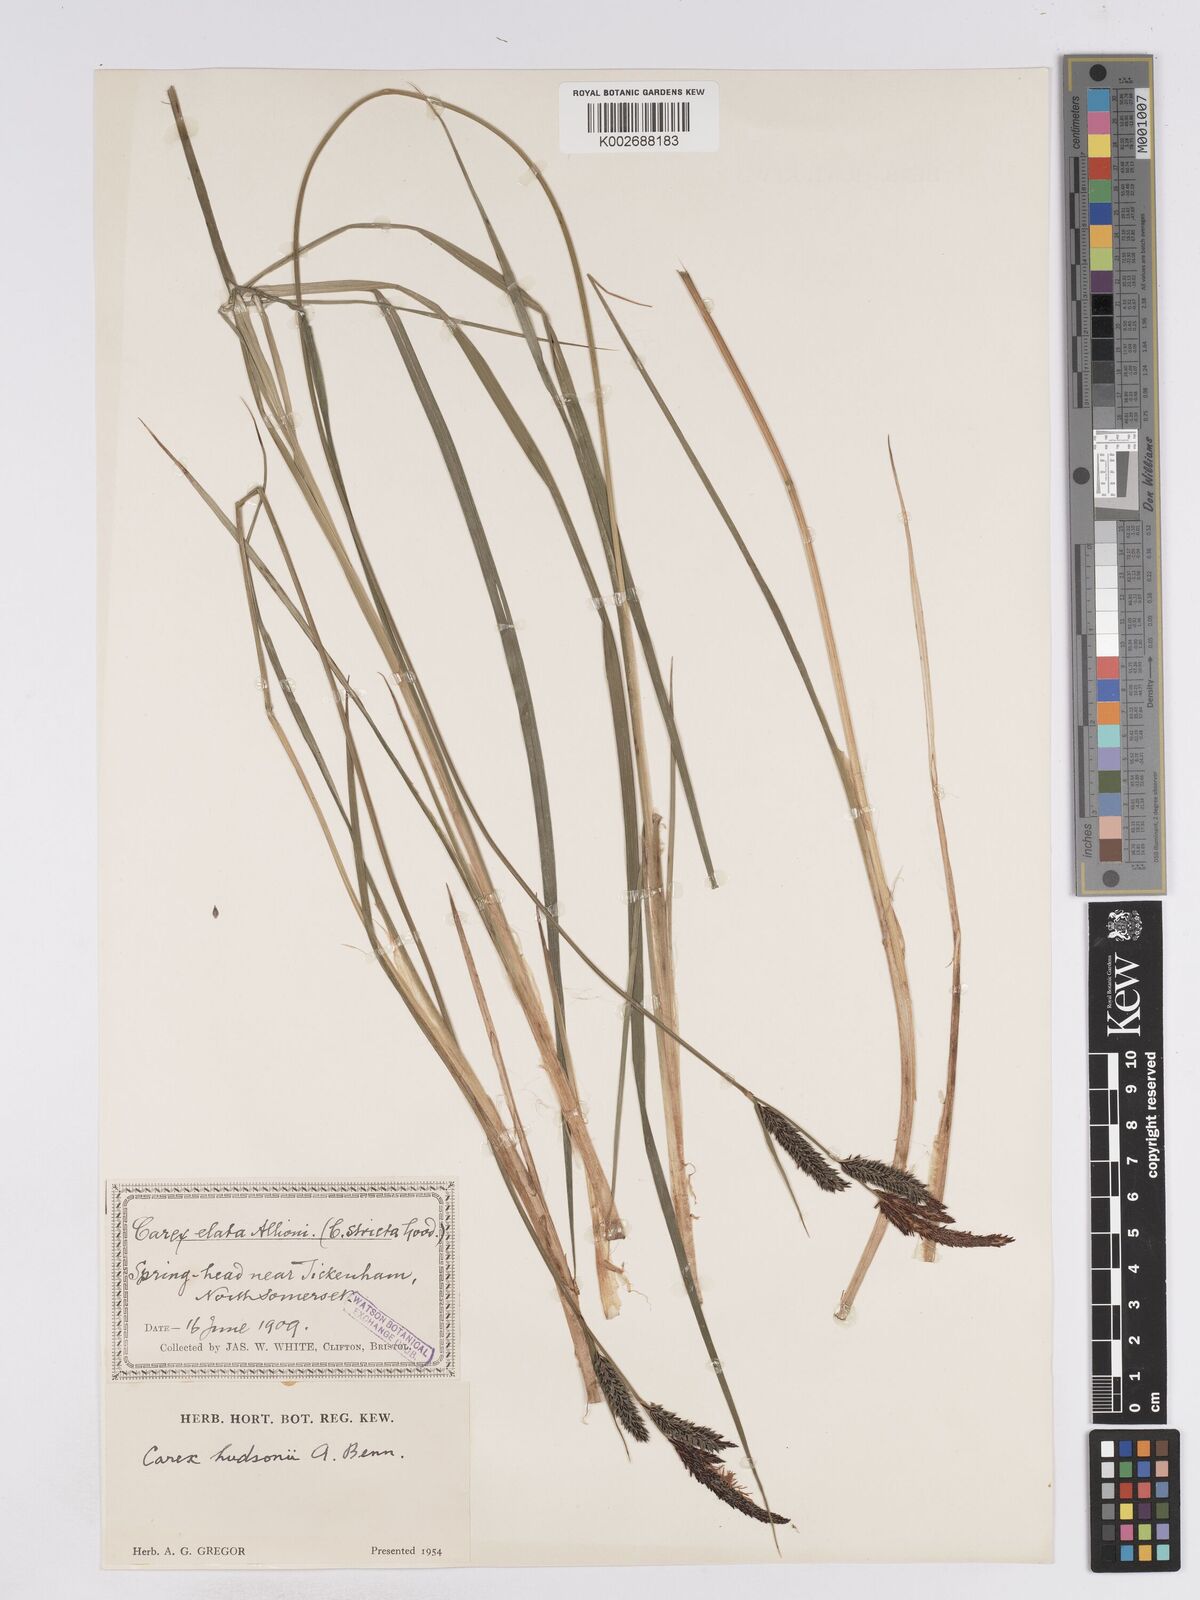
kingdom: Plantae
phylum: Tracheophyta
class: Liliopsida
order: Poales
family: Cyperaceae
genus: Carex
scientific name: Carex elata
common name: Tufted sedge
